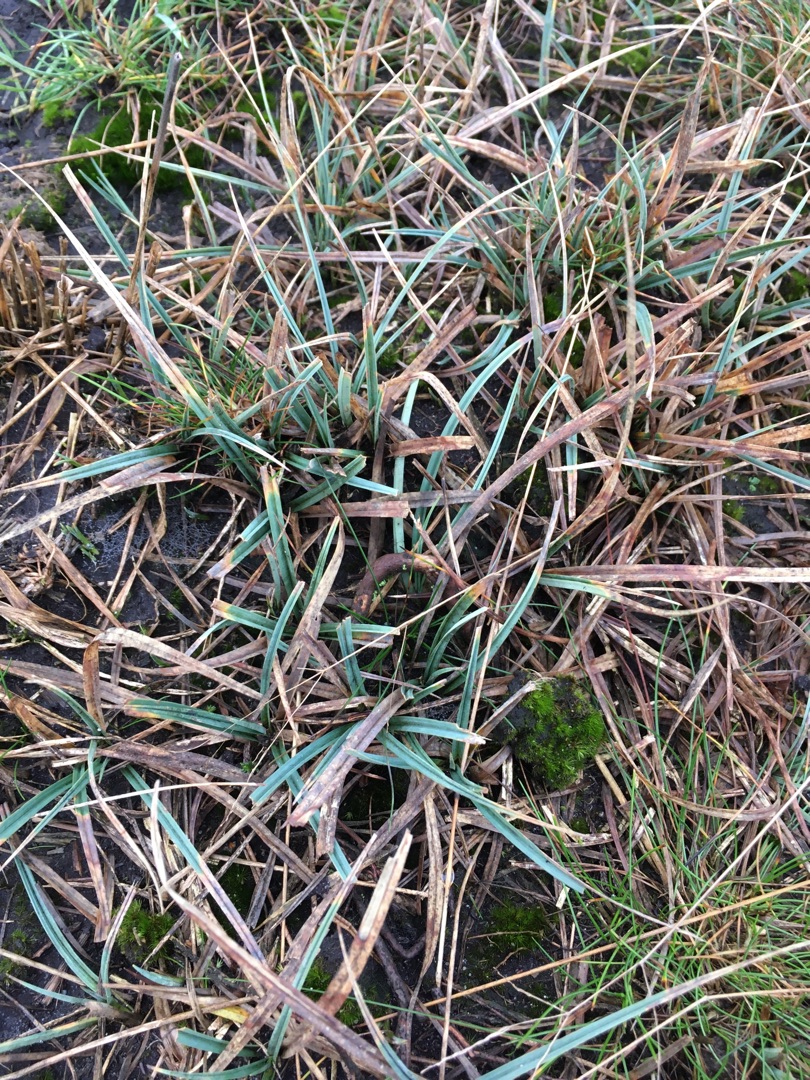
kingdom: Plantae
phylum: Tracheophyta
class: Liliopsida
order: Poales
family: Cyperaceae
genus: Carex
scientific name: Carex panicea
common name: Hirse-star
